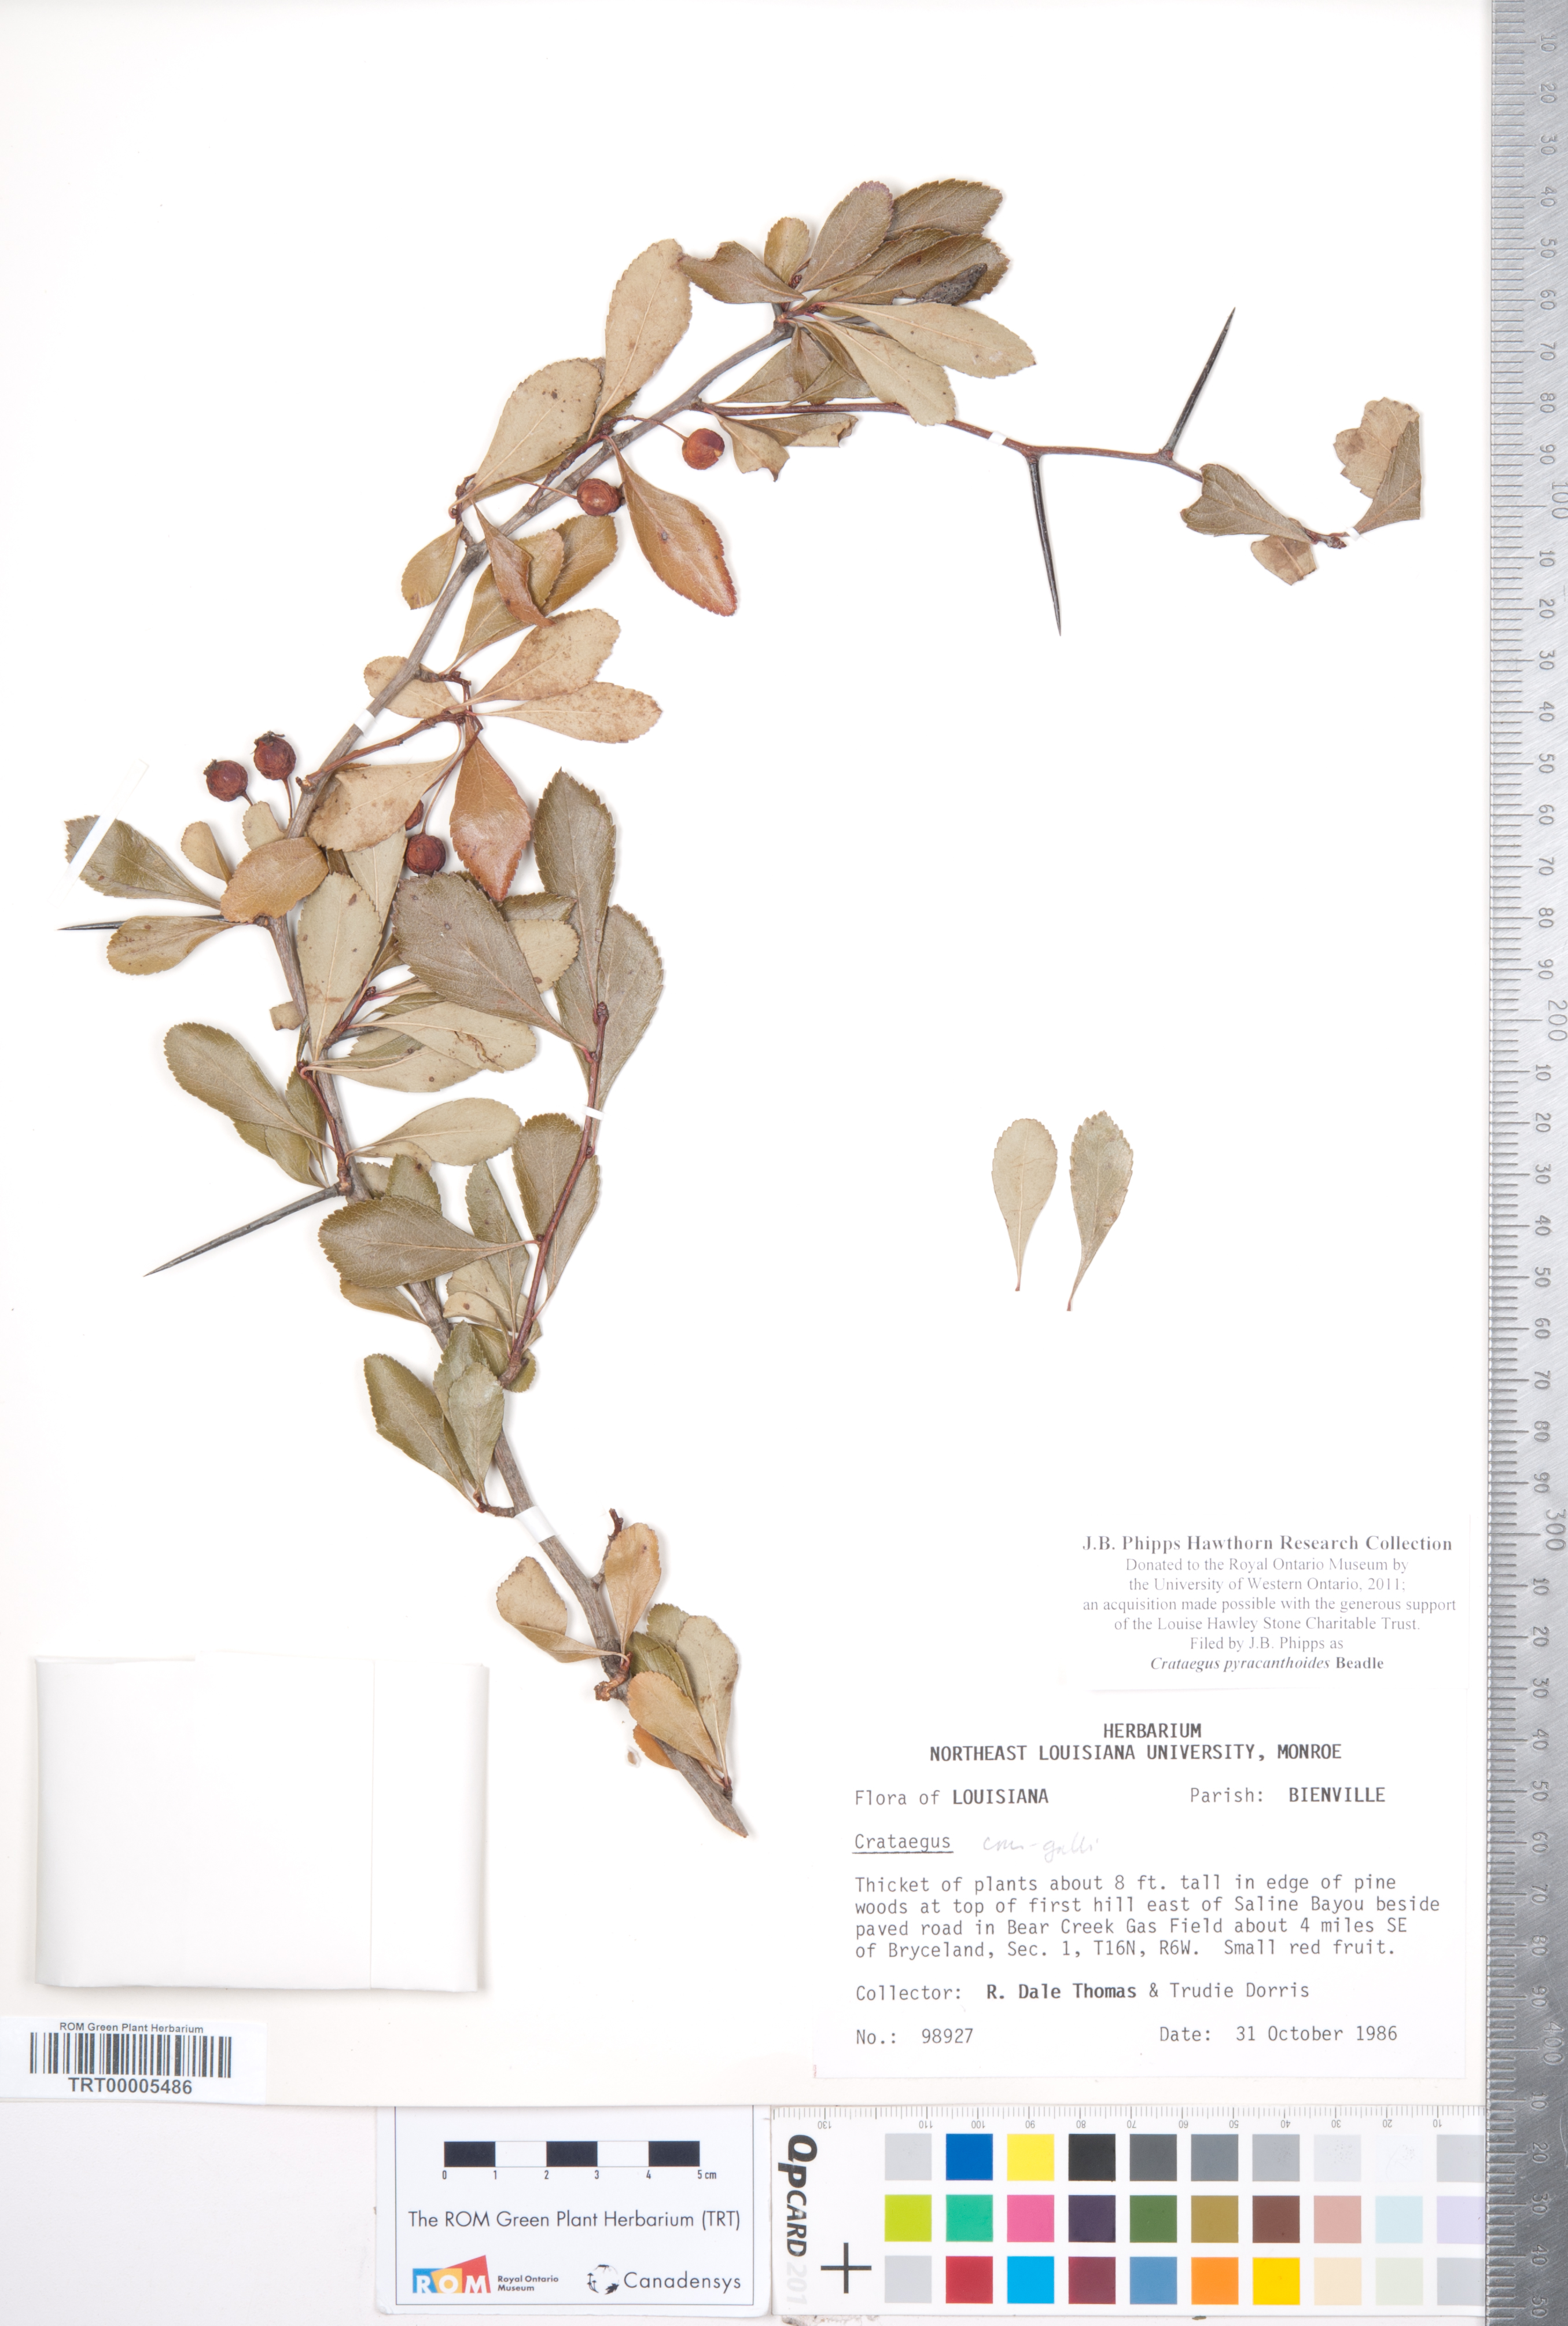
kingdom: Plantae
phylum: Tracheophyta
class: Magnoliopsida
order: Rosales
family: Rosaceae
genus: Crataegus
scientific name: Crataegus crus-galli
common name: Cockspurthorn
